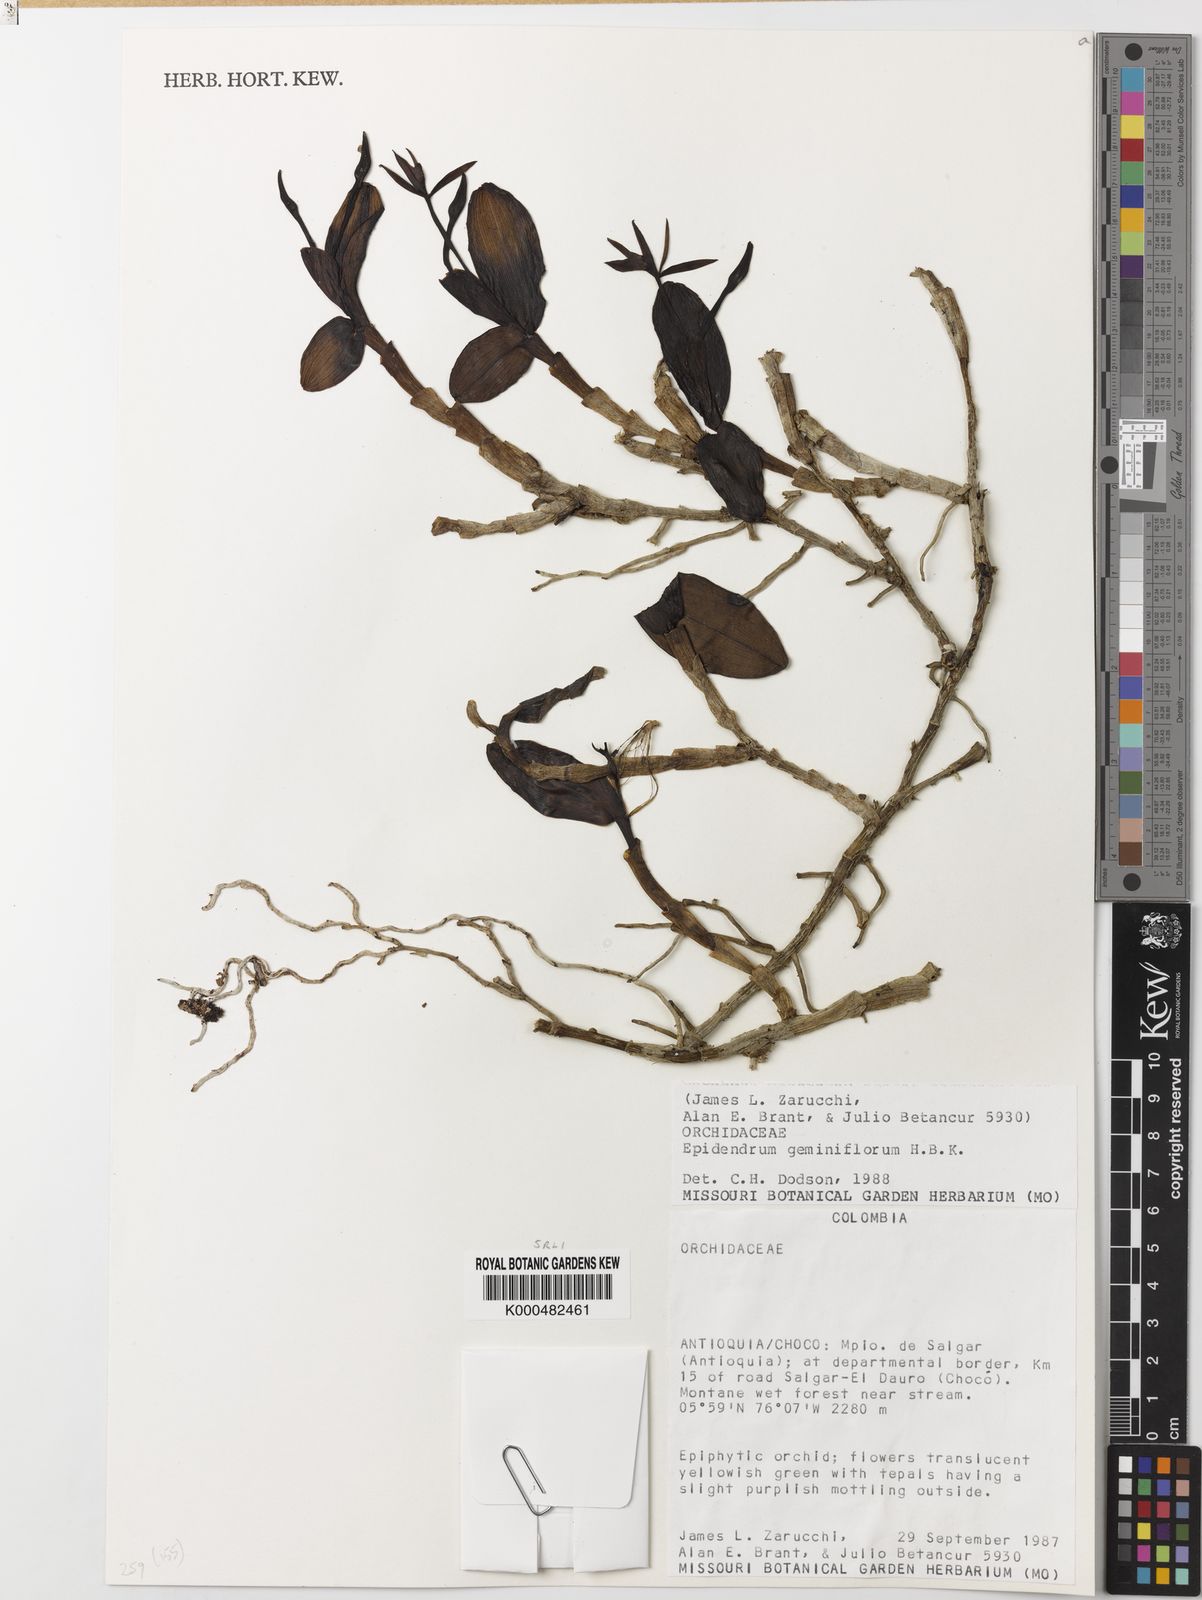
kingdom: Plantae
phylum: Tracheophyta
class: Liliopsida
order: Asparagales
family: Orchidaceae
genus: Epidendrum
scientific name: Epidendrum geminiflorum
